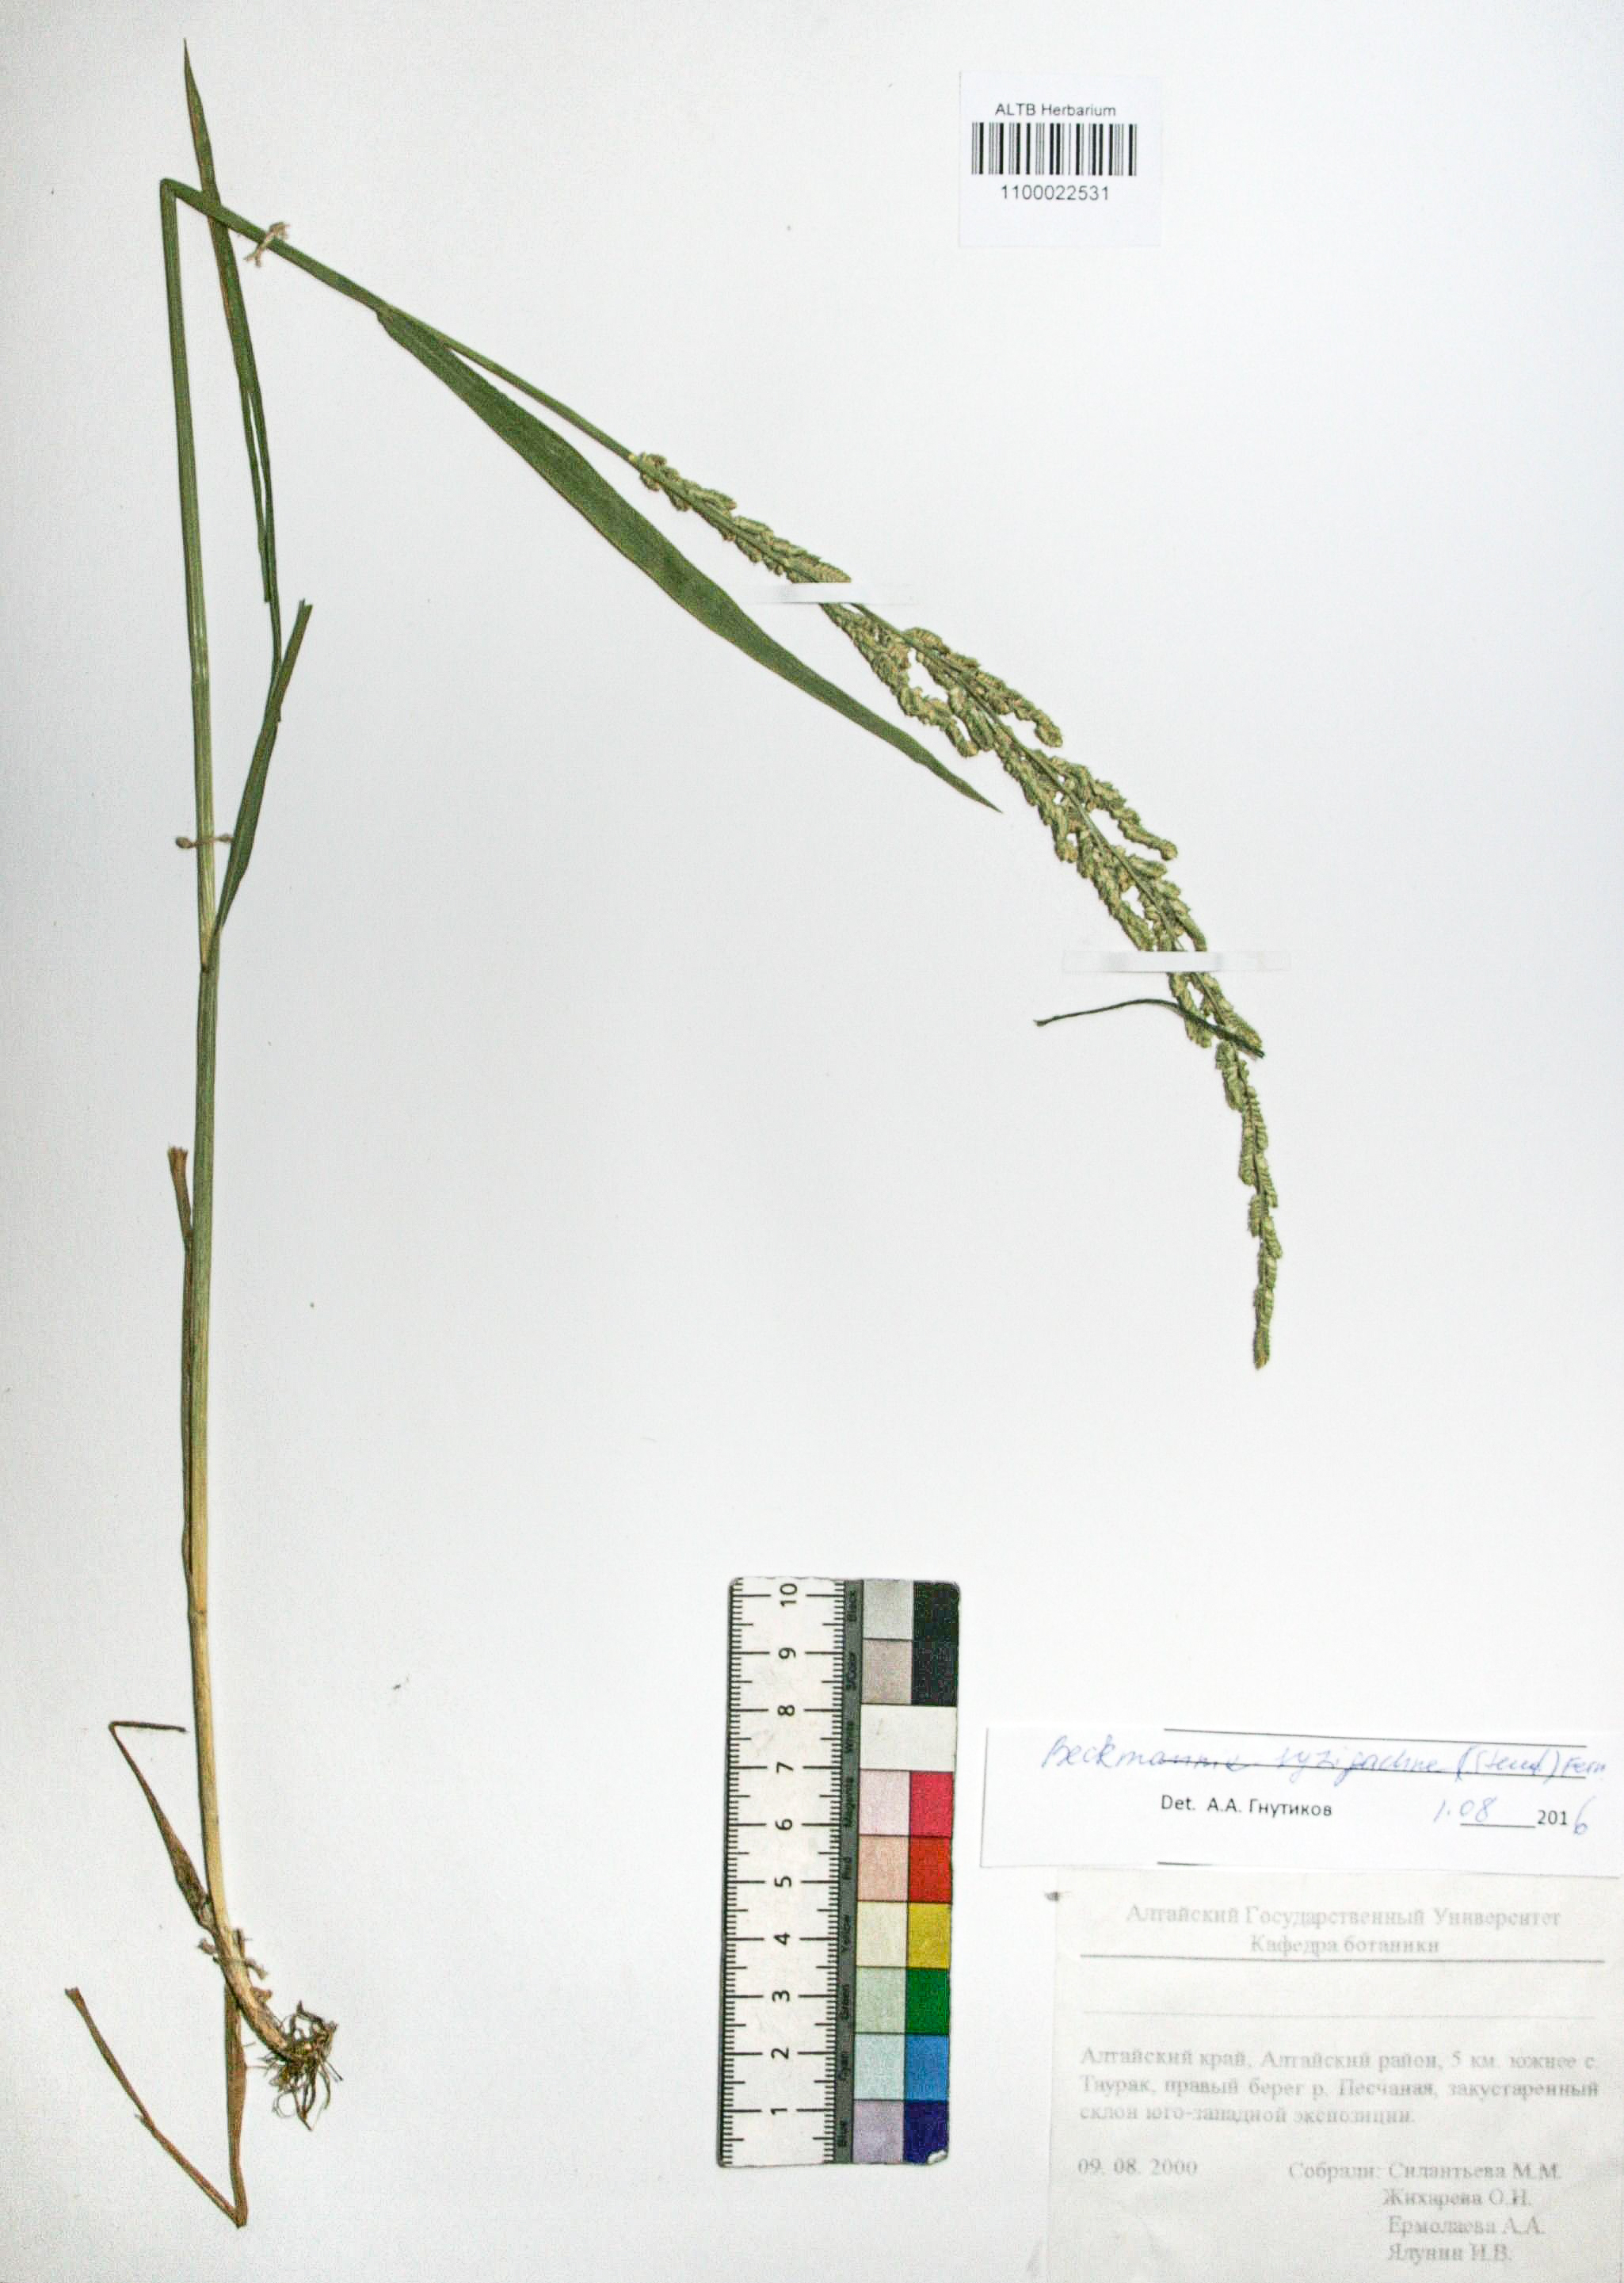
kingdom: Plantae
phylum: Tracheophyta
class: Liliopsida
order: Poales
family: Poaceae
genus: Beckmannia
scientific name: Beckmannia syzigachne
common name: American slough-grass
